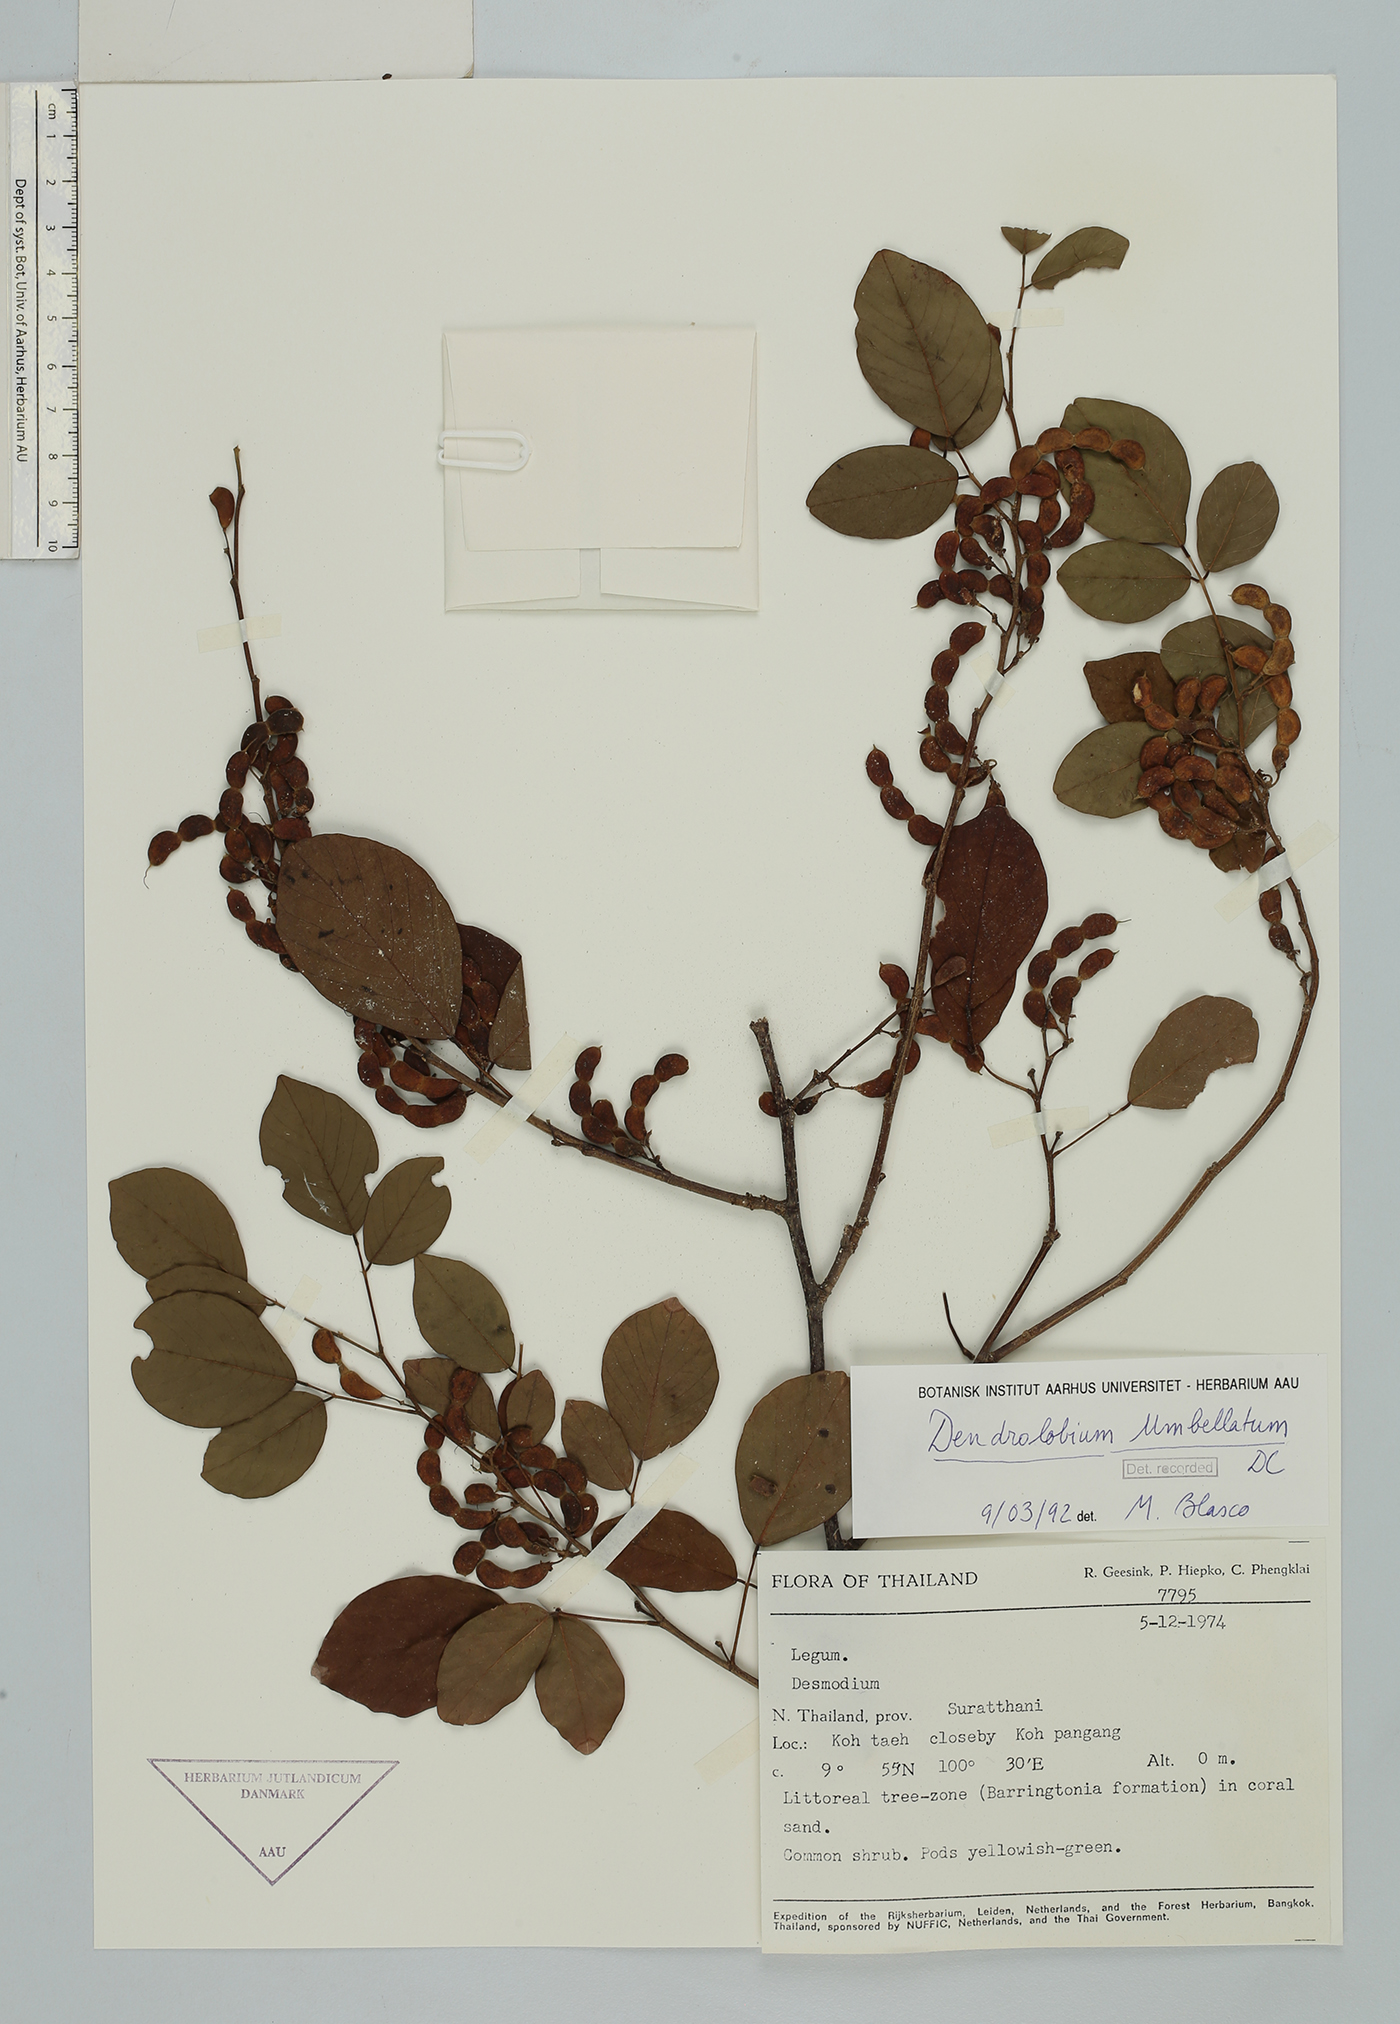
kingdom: Plantae
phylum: Tracheophyta
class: Magnoliopsida
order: Fabales
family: Fabaceae
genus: Dendrolobium
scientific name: Dendrolobium umbellatum
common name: Horsebush
